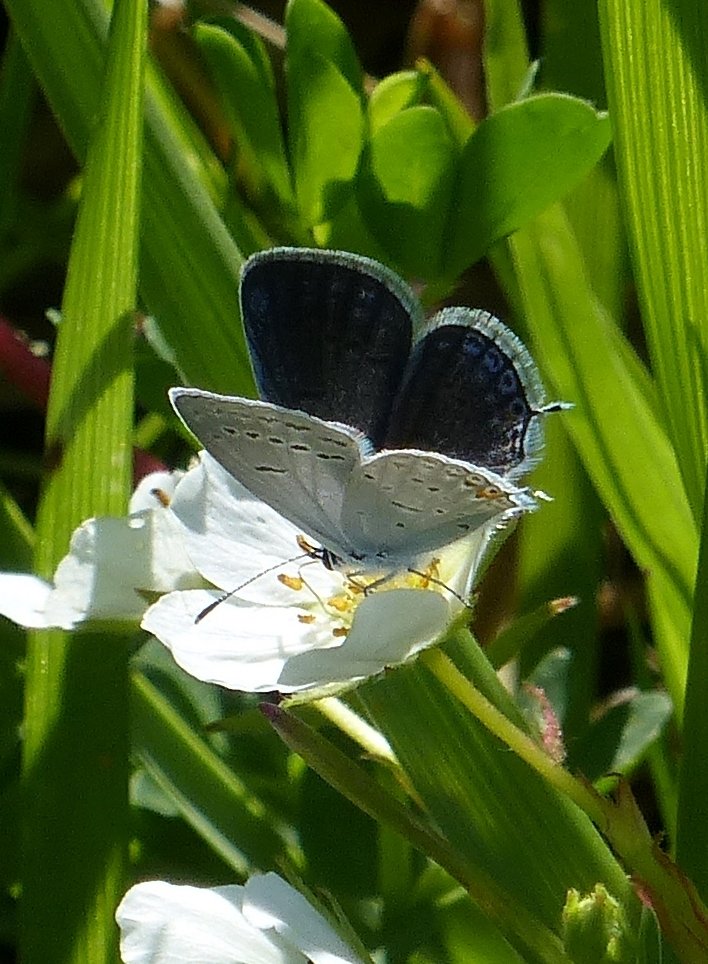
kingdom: Animalia
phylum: Arthropoda
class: Insecta
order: Lepidoptera
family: Lycaenidae
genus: Elkalyce
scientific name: Elkalyce comyntas
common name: Eastern Tailed-Blue
